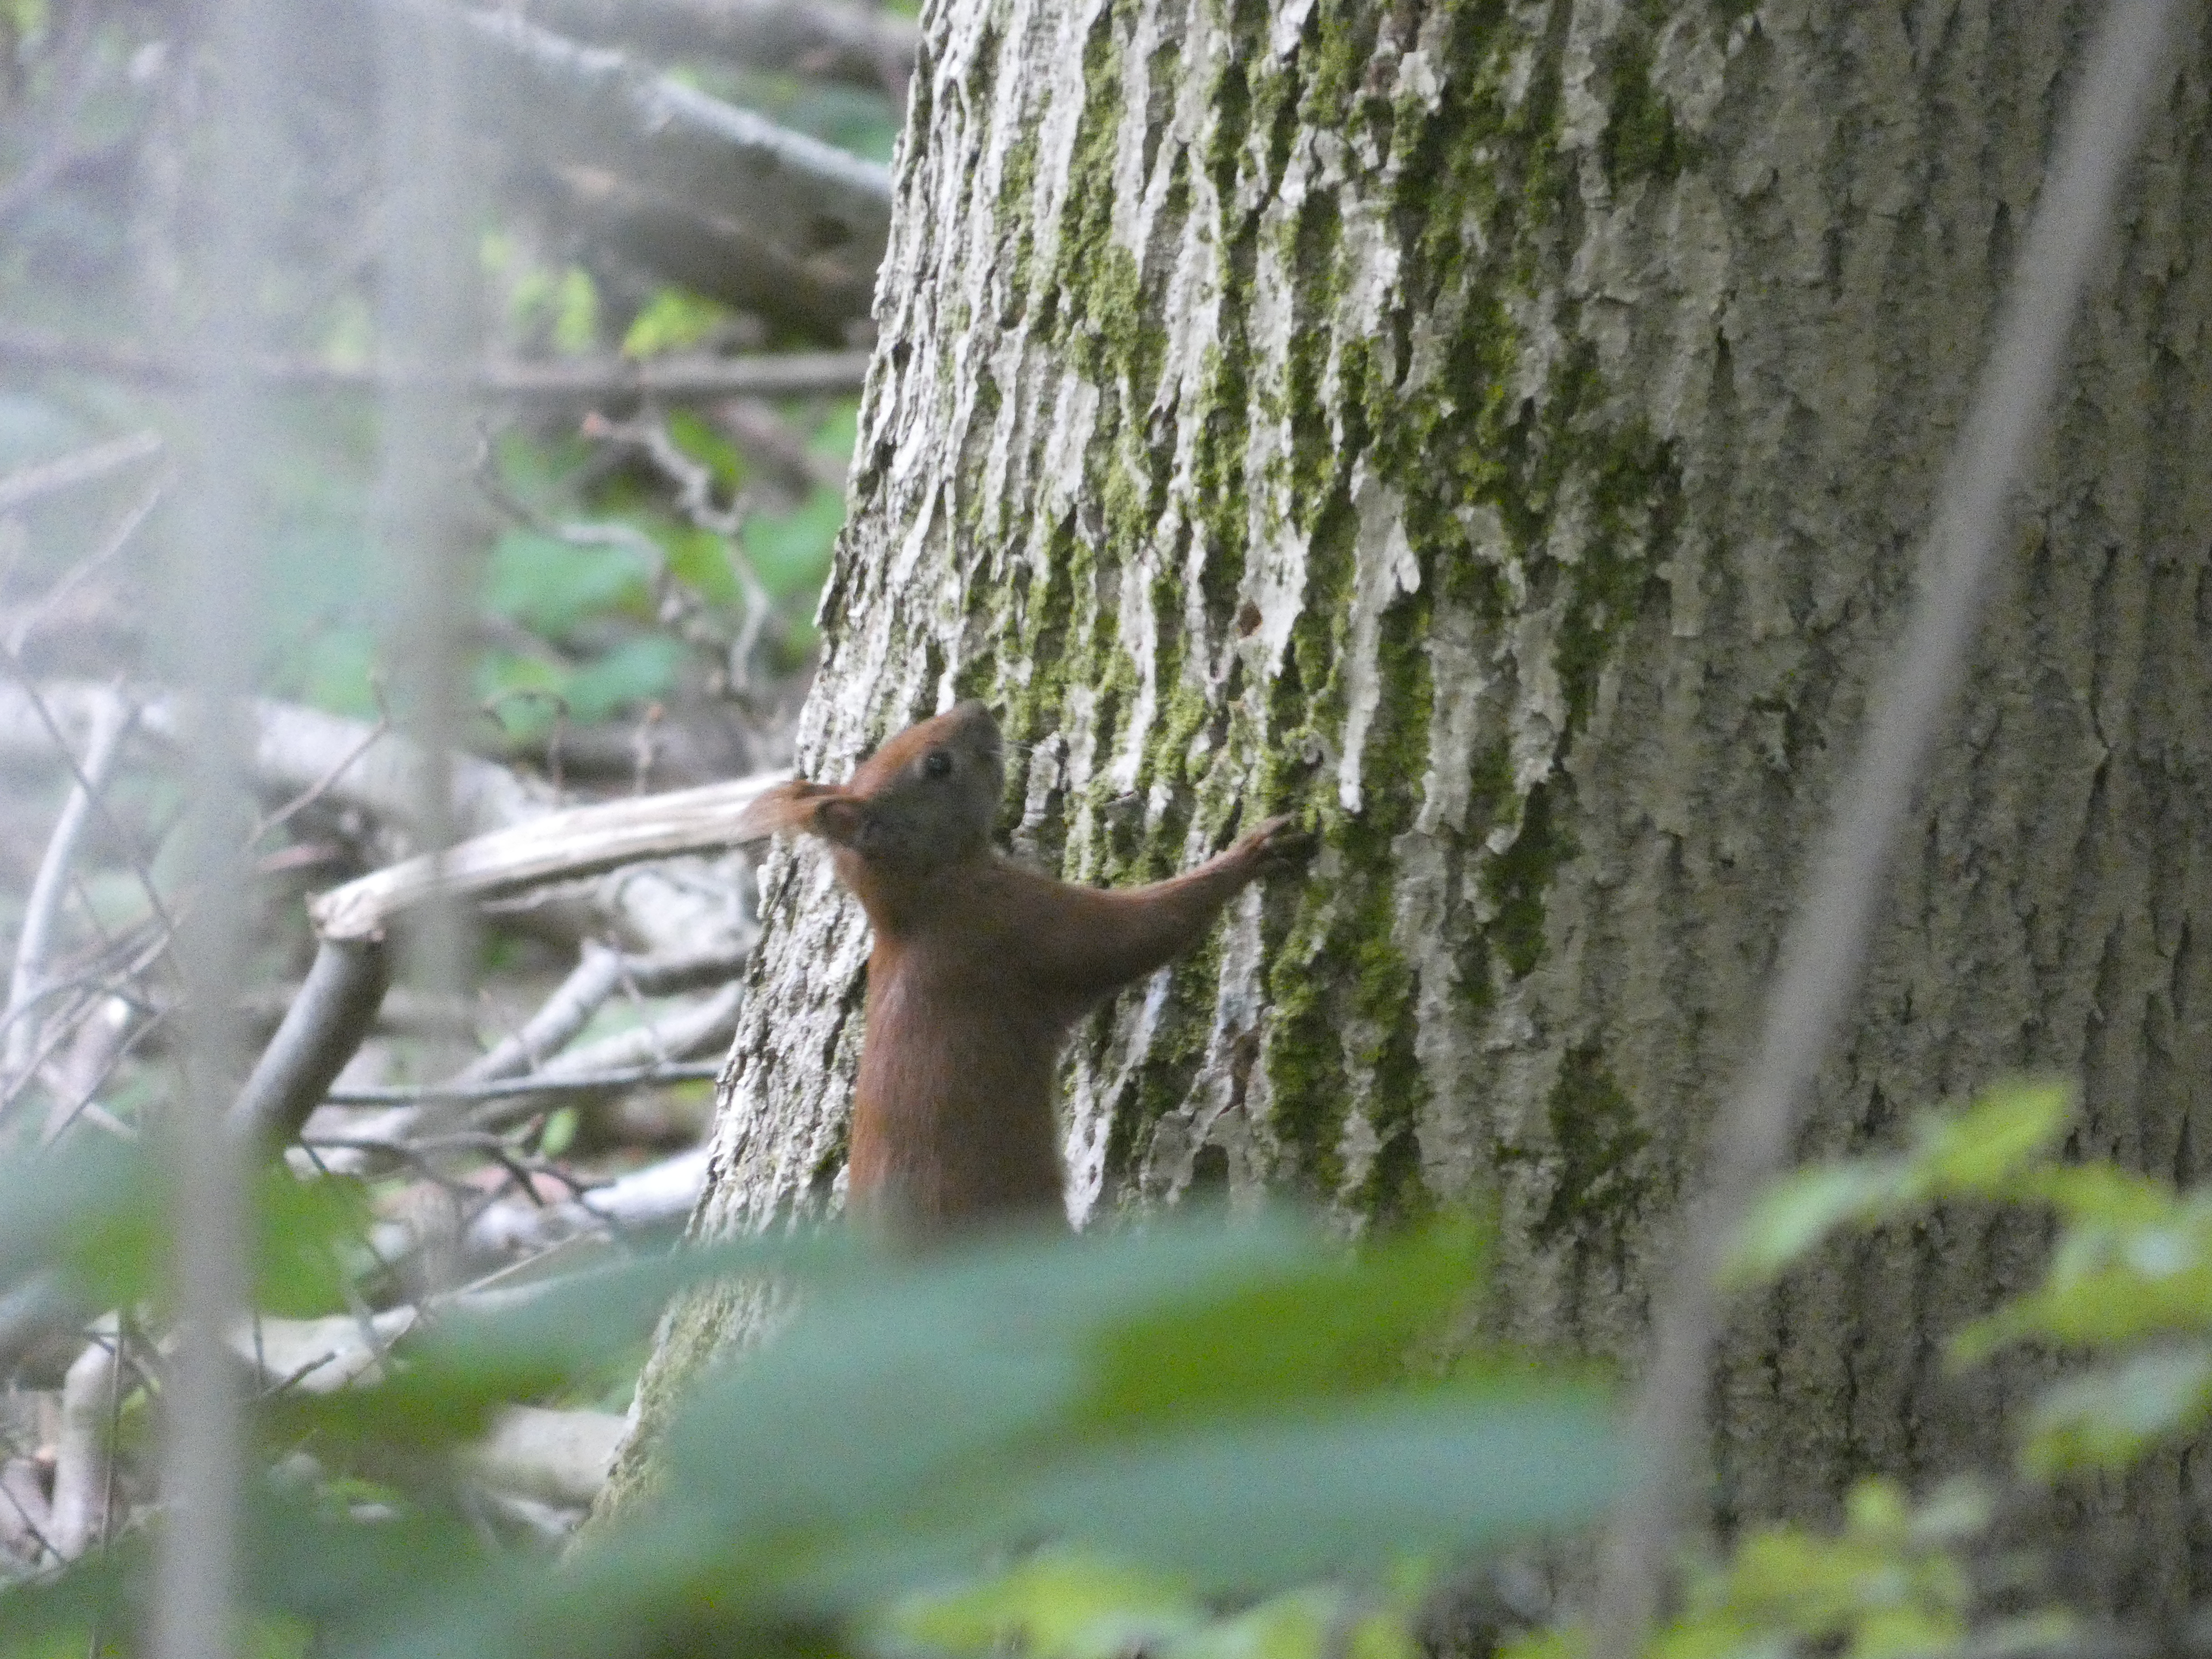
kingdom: Animalia
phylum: Chordata
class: Mammalia
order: Rodentia
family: Sciuridae
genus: Sciurus
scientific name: Sciurus vulgaris
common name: Egern
